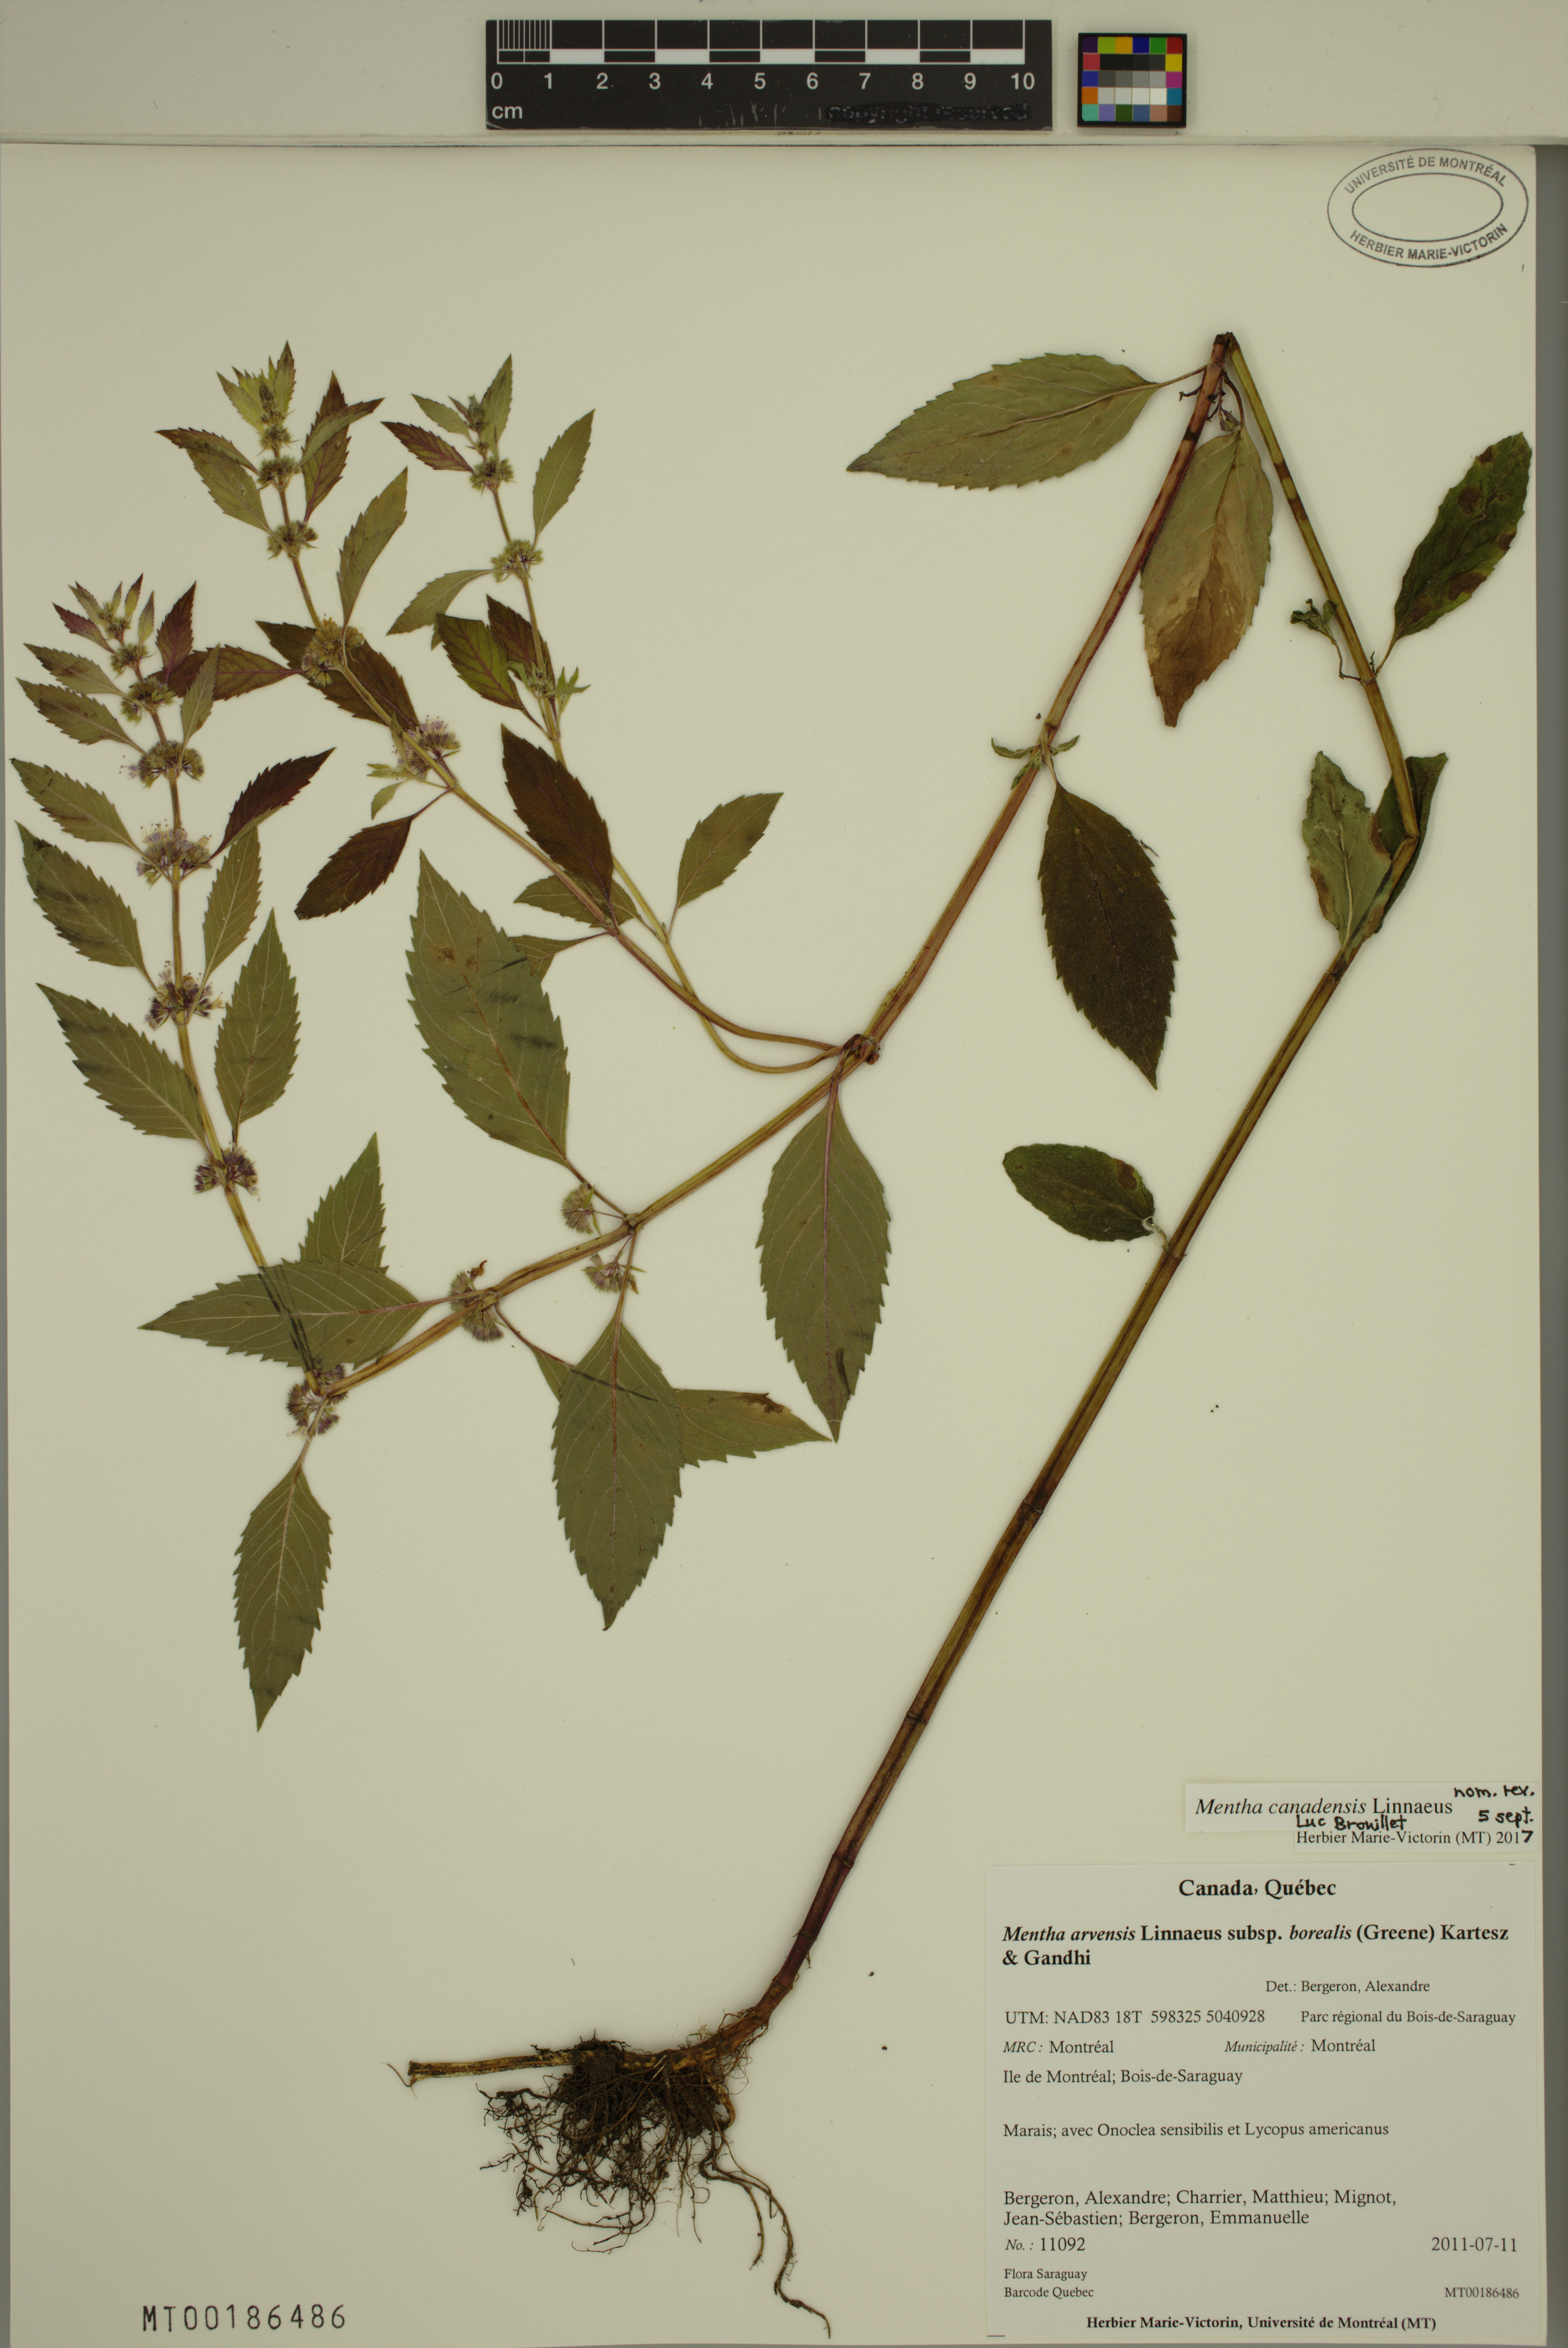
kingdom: Plantae
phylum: Tracheophyta
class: Magnoliopsida
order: Lamiales
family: Lamiaceae
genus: Mentha
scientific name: Mentha canadensis
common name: American corn mint
